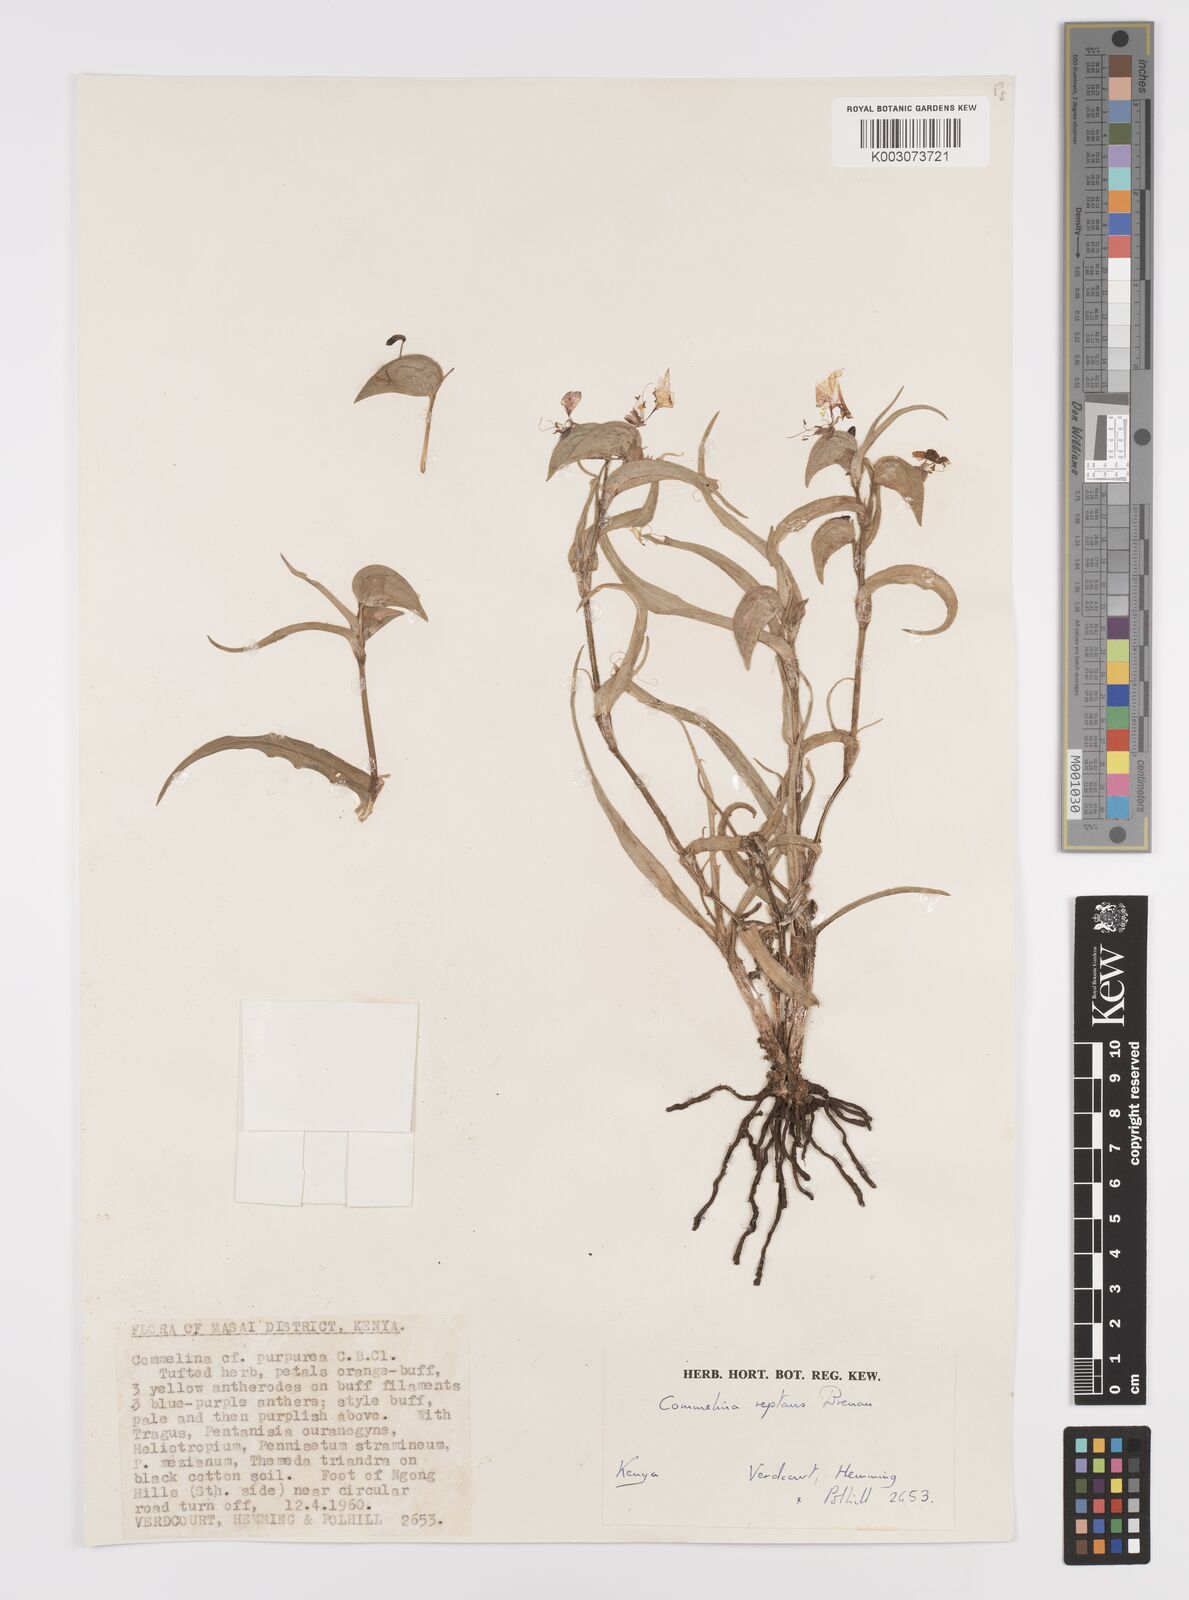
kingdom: Plantae
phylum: Tracheophyta
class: Liliopsida
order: Commelinales
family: Commelinaceae
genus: Commelina
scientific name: Commelina reptans
